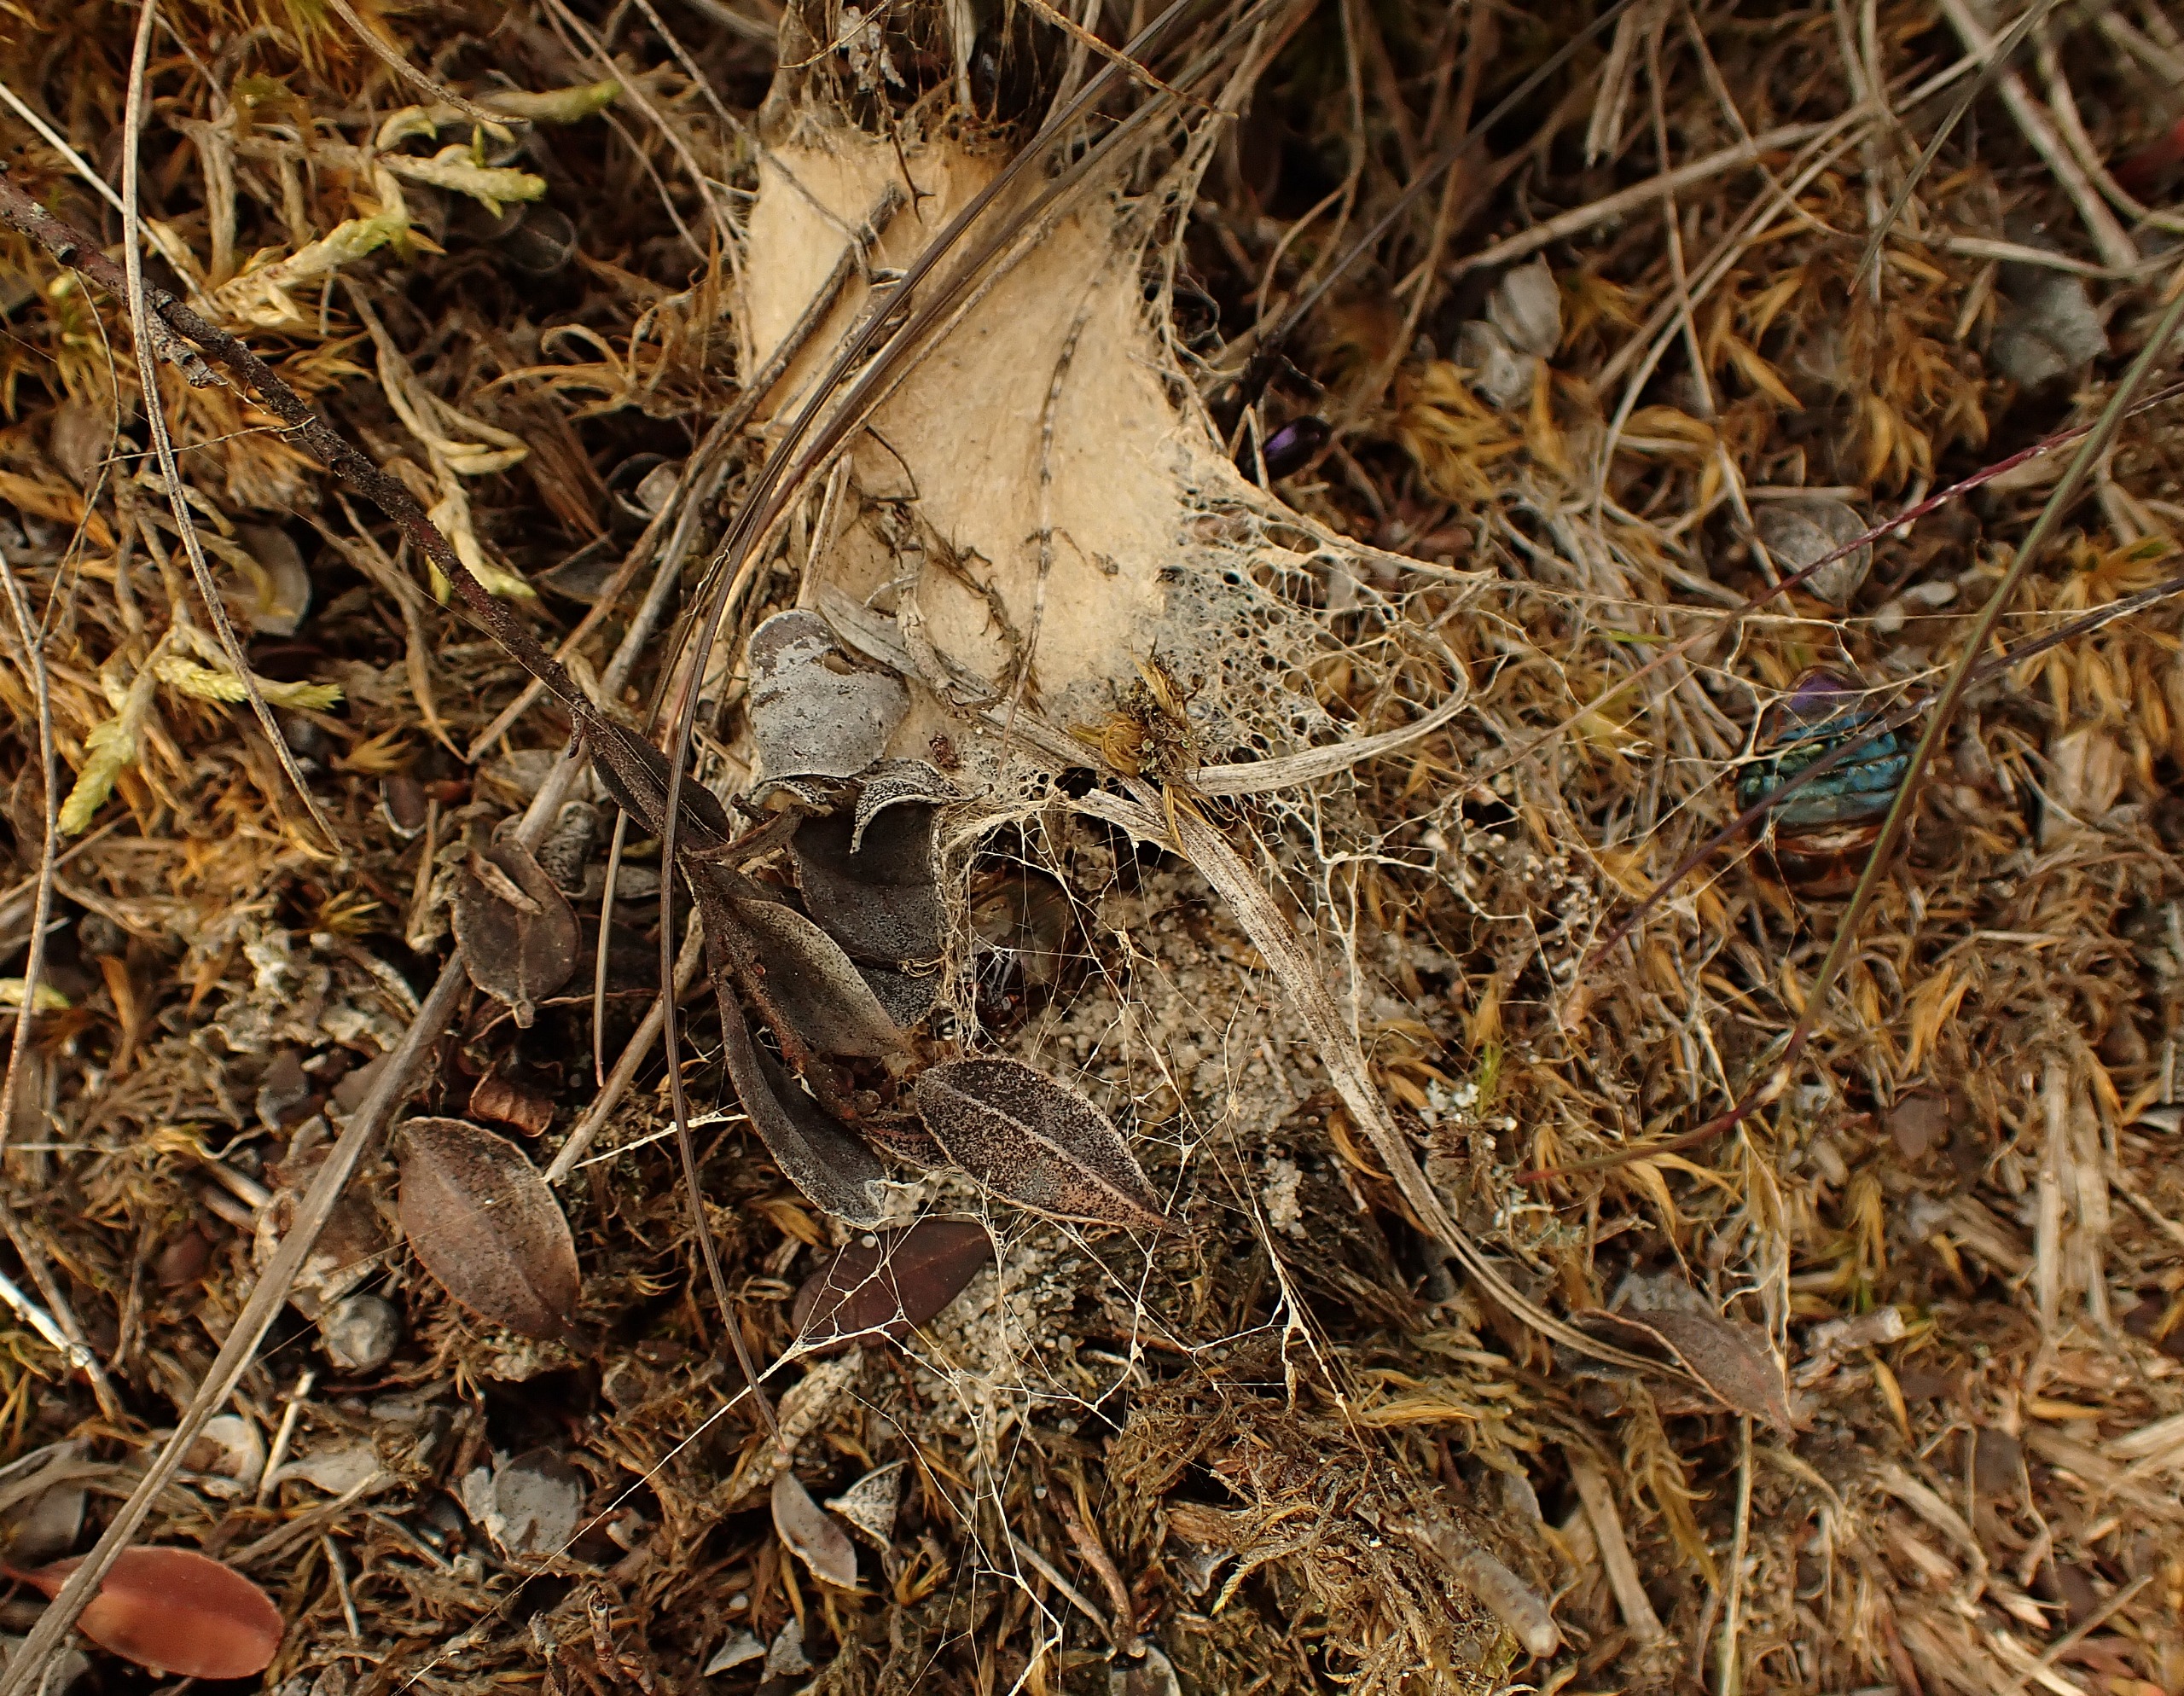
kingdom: Animalia
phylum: Arthropoda
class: Arachnida
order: Araneae
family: Eresidae
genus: Eresus
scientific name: Eresus sandaliatus
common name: Mariehøneedderkop
